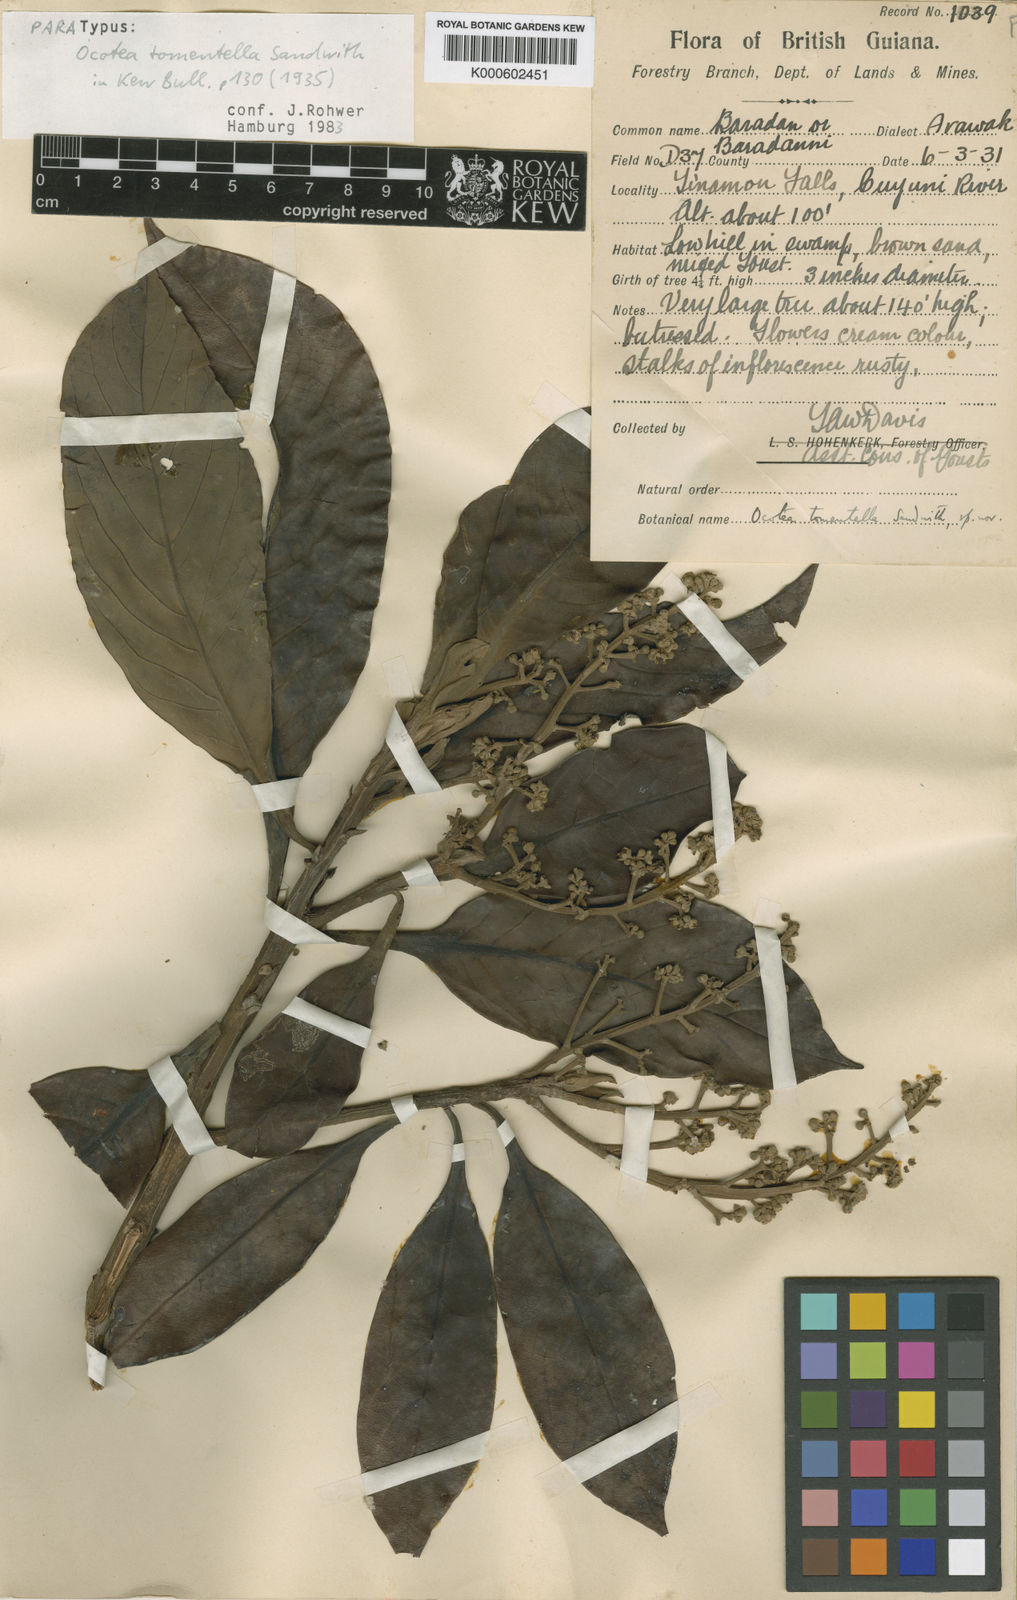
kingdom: Plantae
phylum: Tracheophyta
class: Magnoliopsida
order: Laurales
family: Lauraceae
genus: Ocotea
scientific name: Ocotea tomentella
